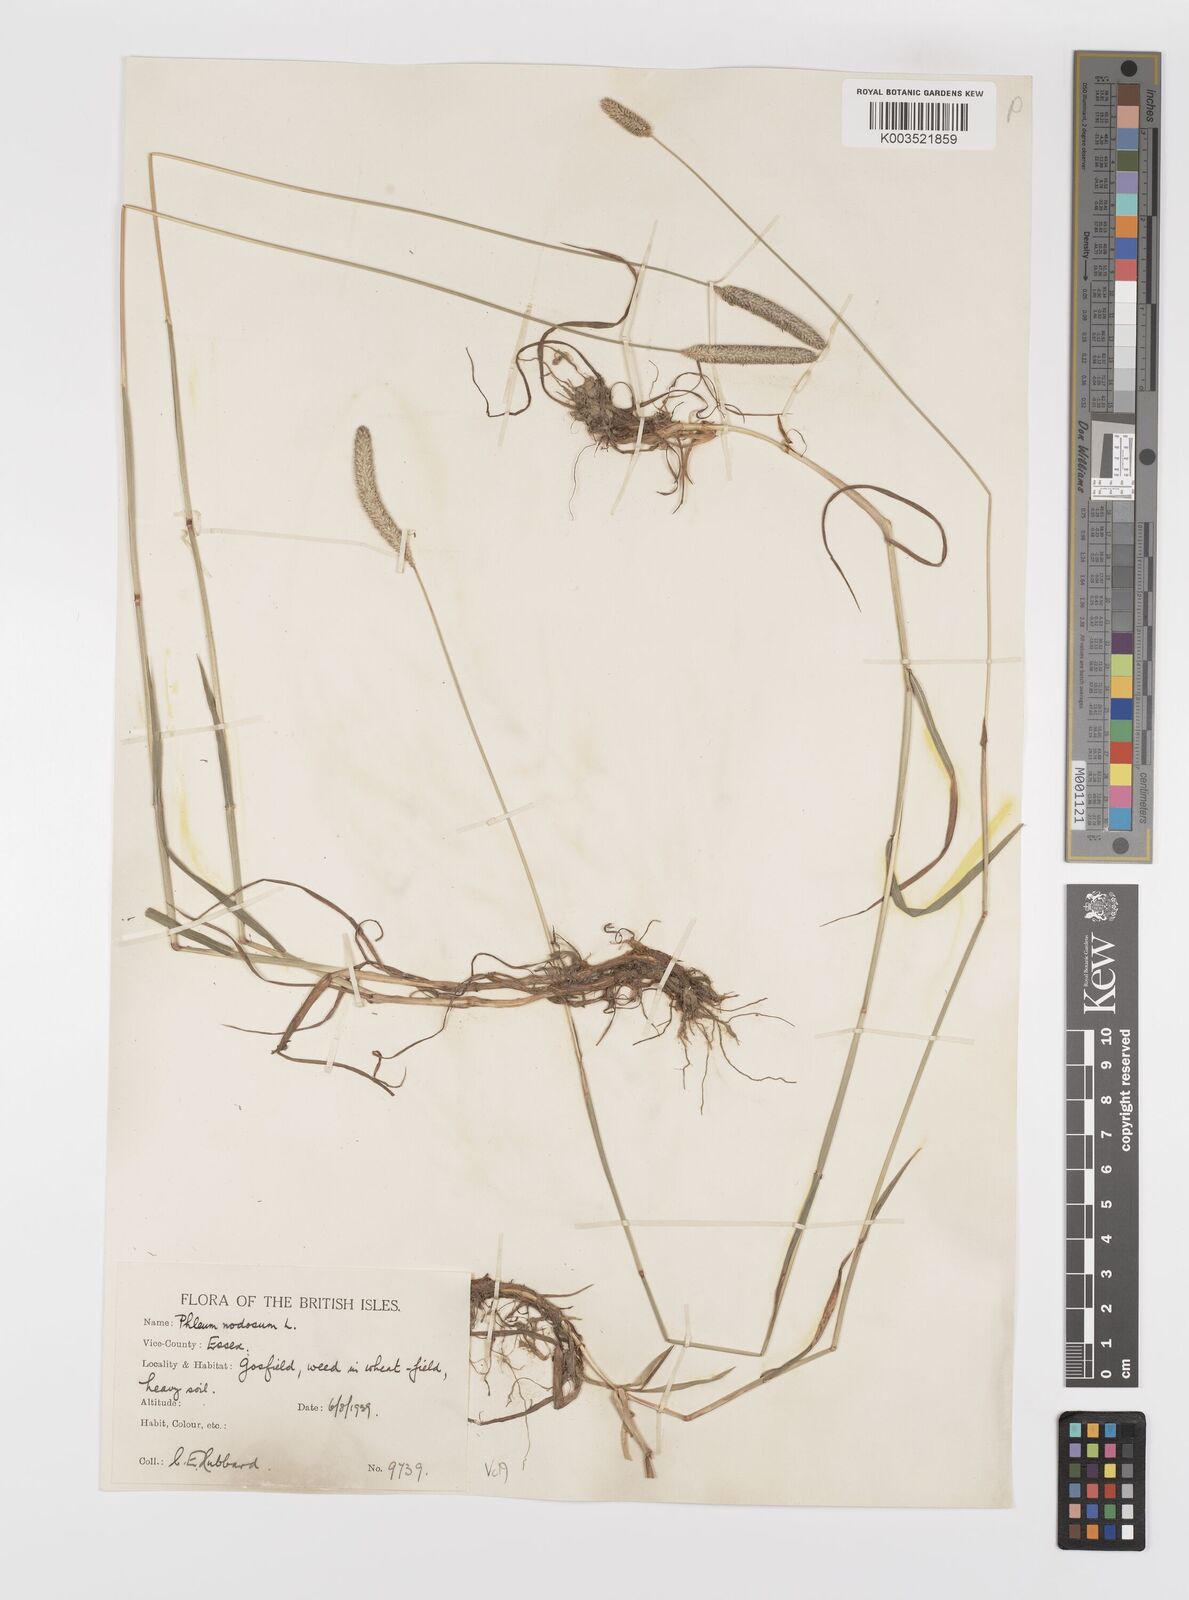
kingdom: Plantae
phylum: Tracheophyta
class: Liliopsida
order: Poales
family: Poaceae
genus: Phleum
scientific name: Phleum bertolonii
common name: Smaller cat's-tail
